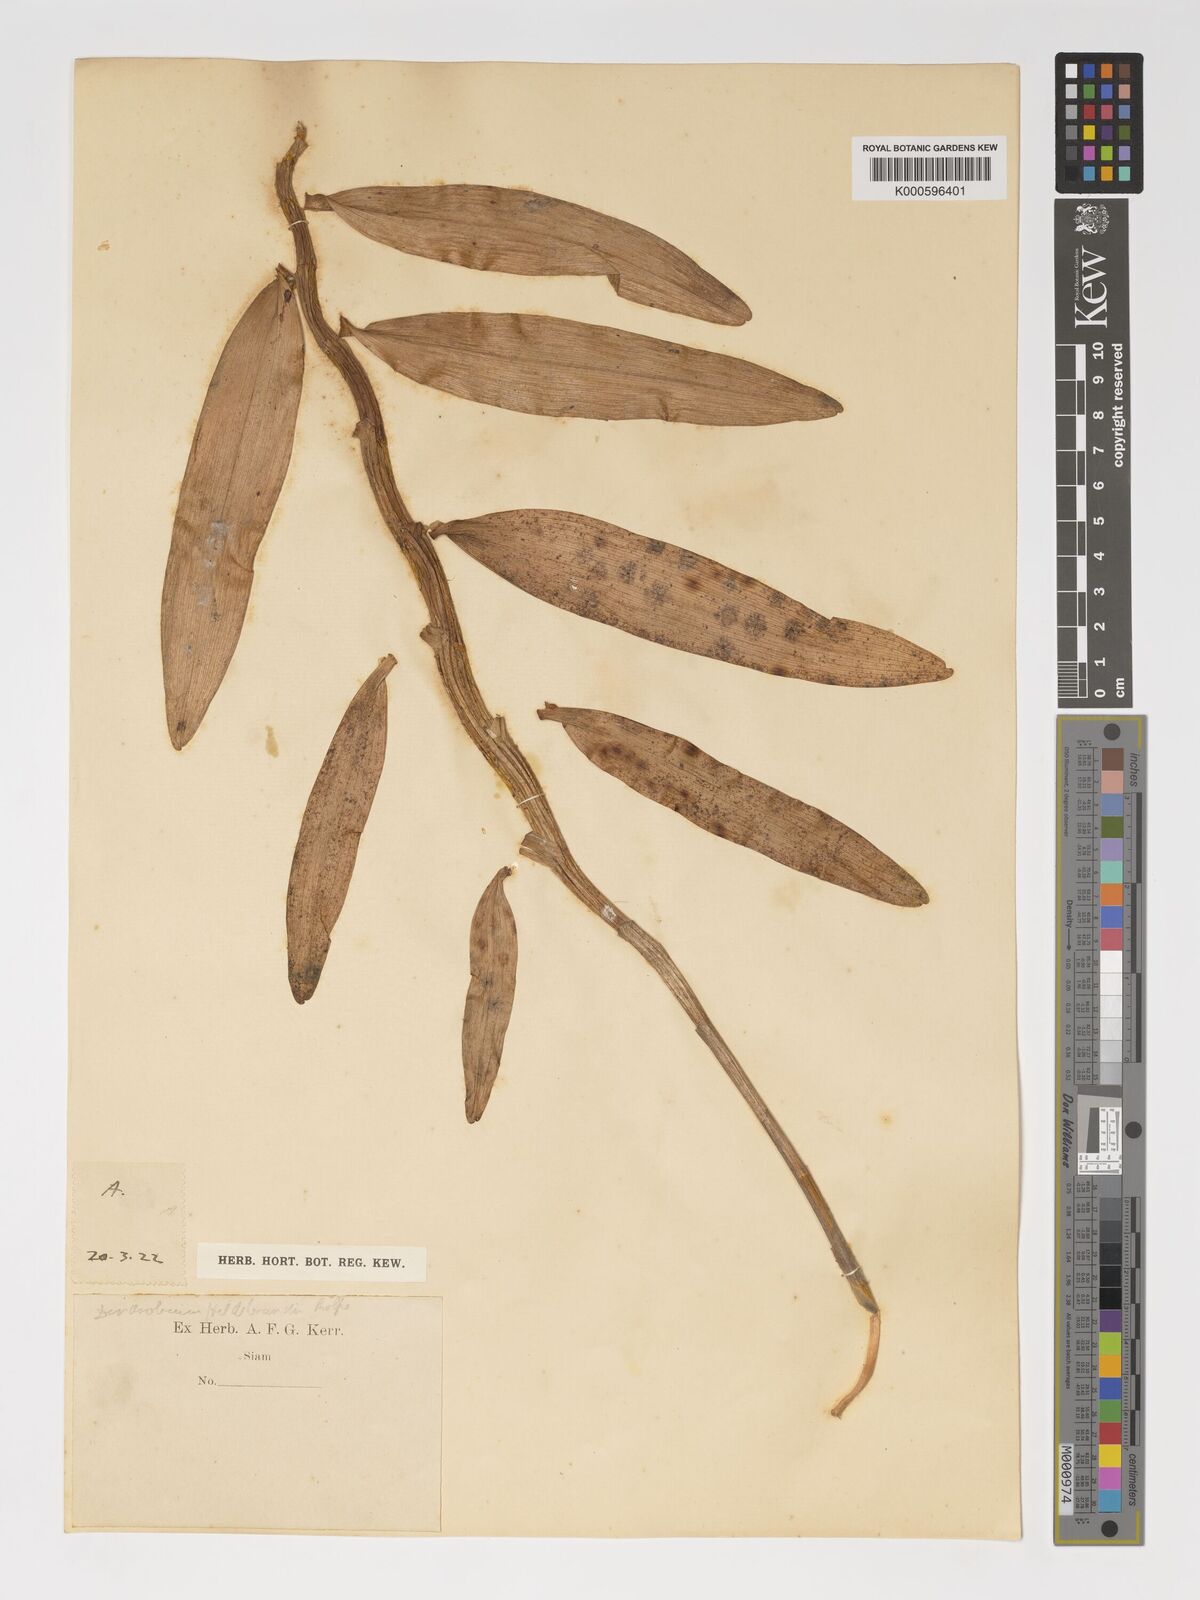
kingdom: Plantae
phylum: Tracheophyta
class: Liliopsida
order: Asparagales
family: Orchidaceae
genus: Dendrobium
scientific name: Dendrobium signatum
